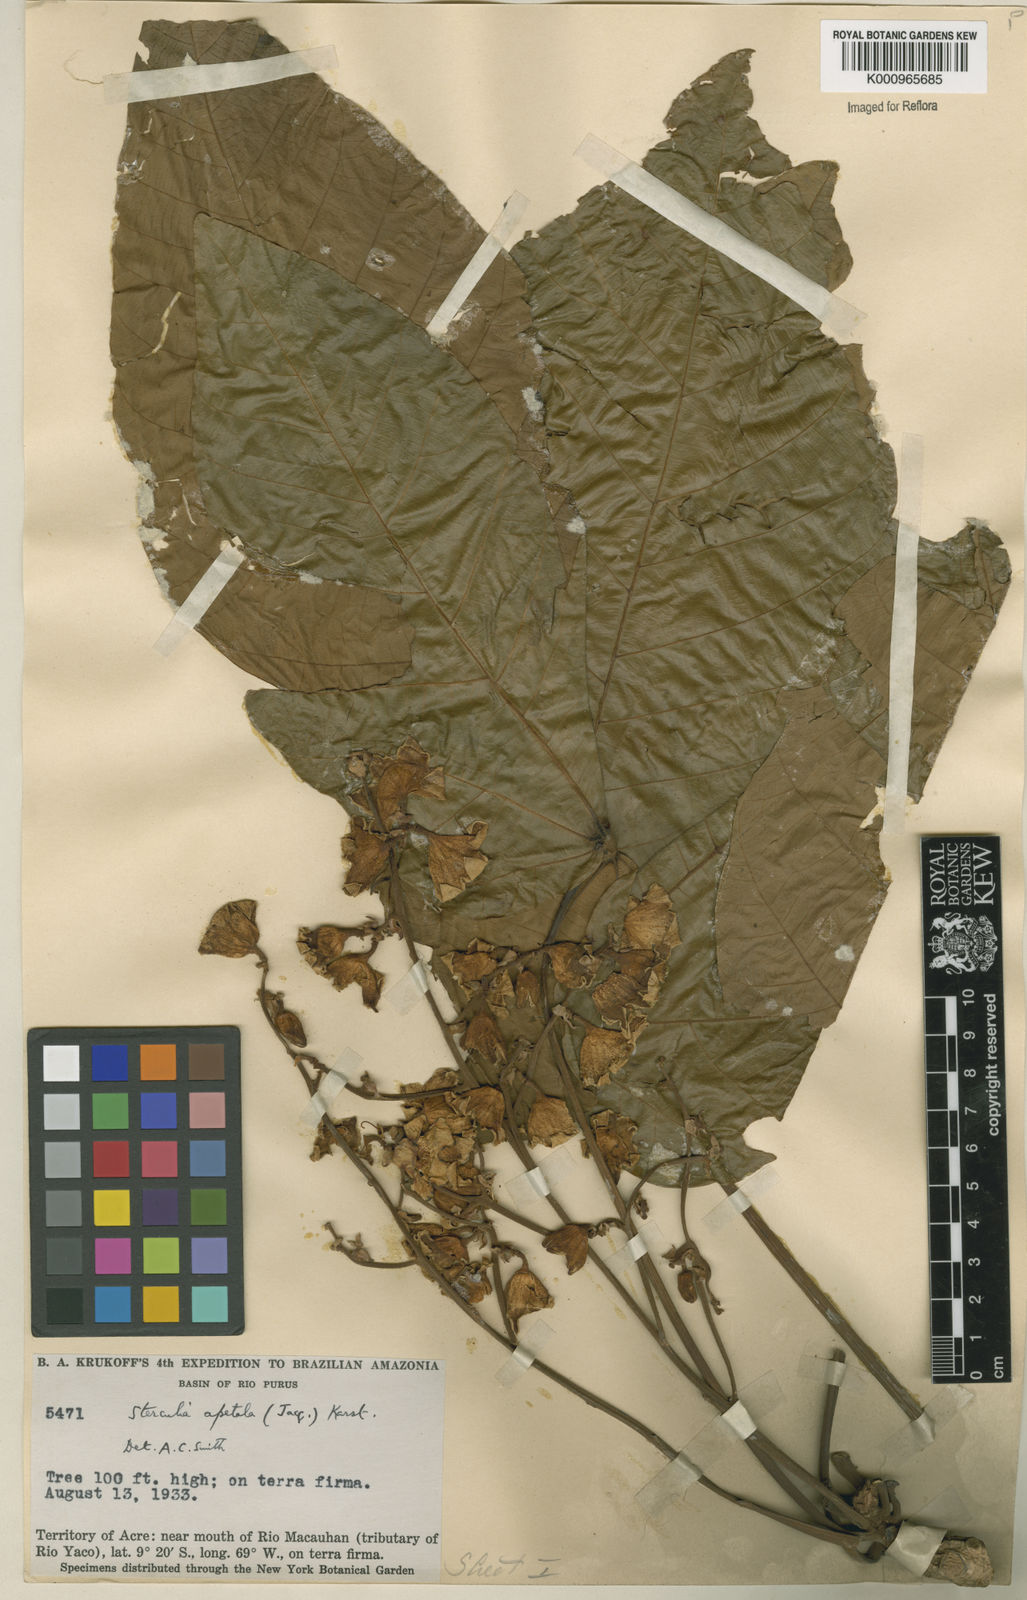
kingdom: Plantae
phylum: Tracheophyta
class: Magnoliopsida
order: Malvales
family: Malvaceae
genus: Sterculia
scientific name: Sterculia apetala
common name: Panama tree
